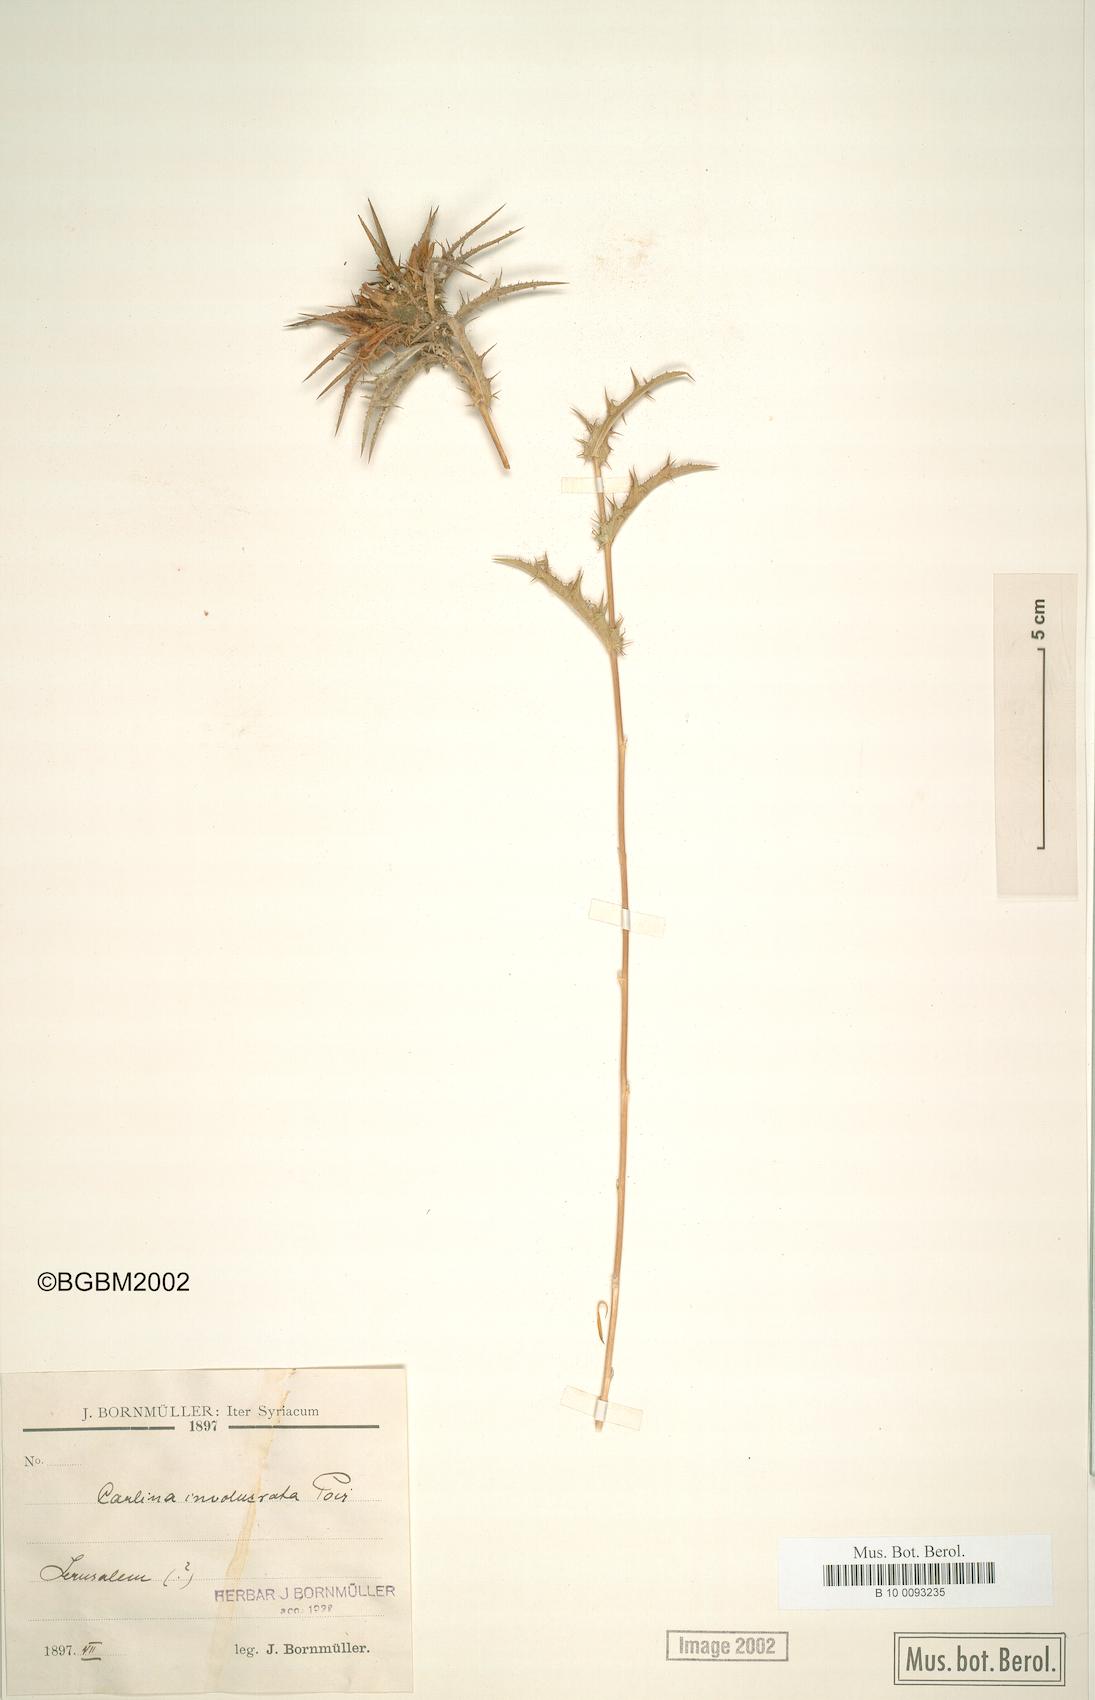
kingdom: Plantae
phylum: Tracheophyta
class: Magnoliopsida
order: Asterales
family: Asteraceae
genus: Carlina
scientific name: Carlina oligocephala
